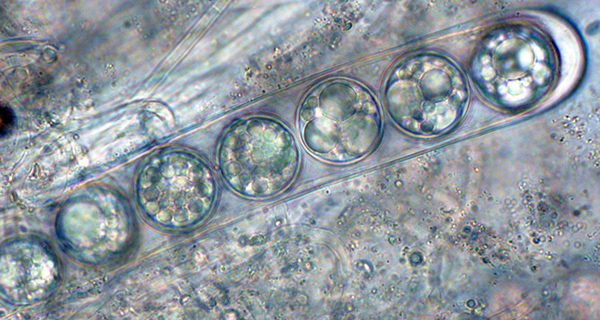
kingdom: Fungi
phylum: Ascomycota
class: Pezizomycetes
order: Pezizales
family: Pulvinulaceae
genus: Pulvinula
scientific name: Pulvinula alba
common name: hvid pudebæger
